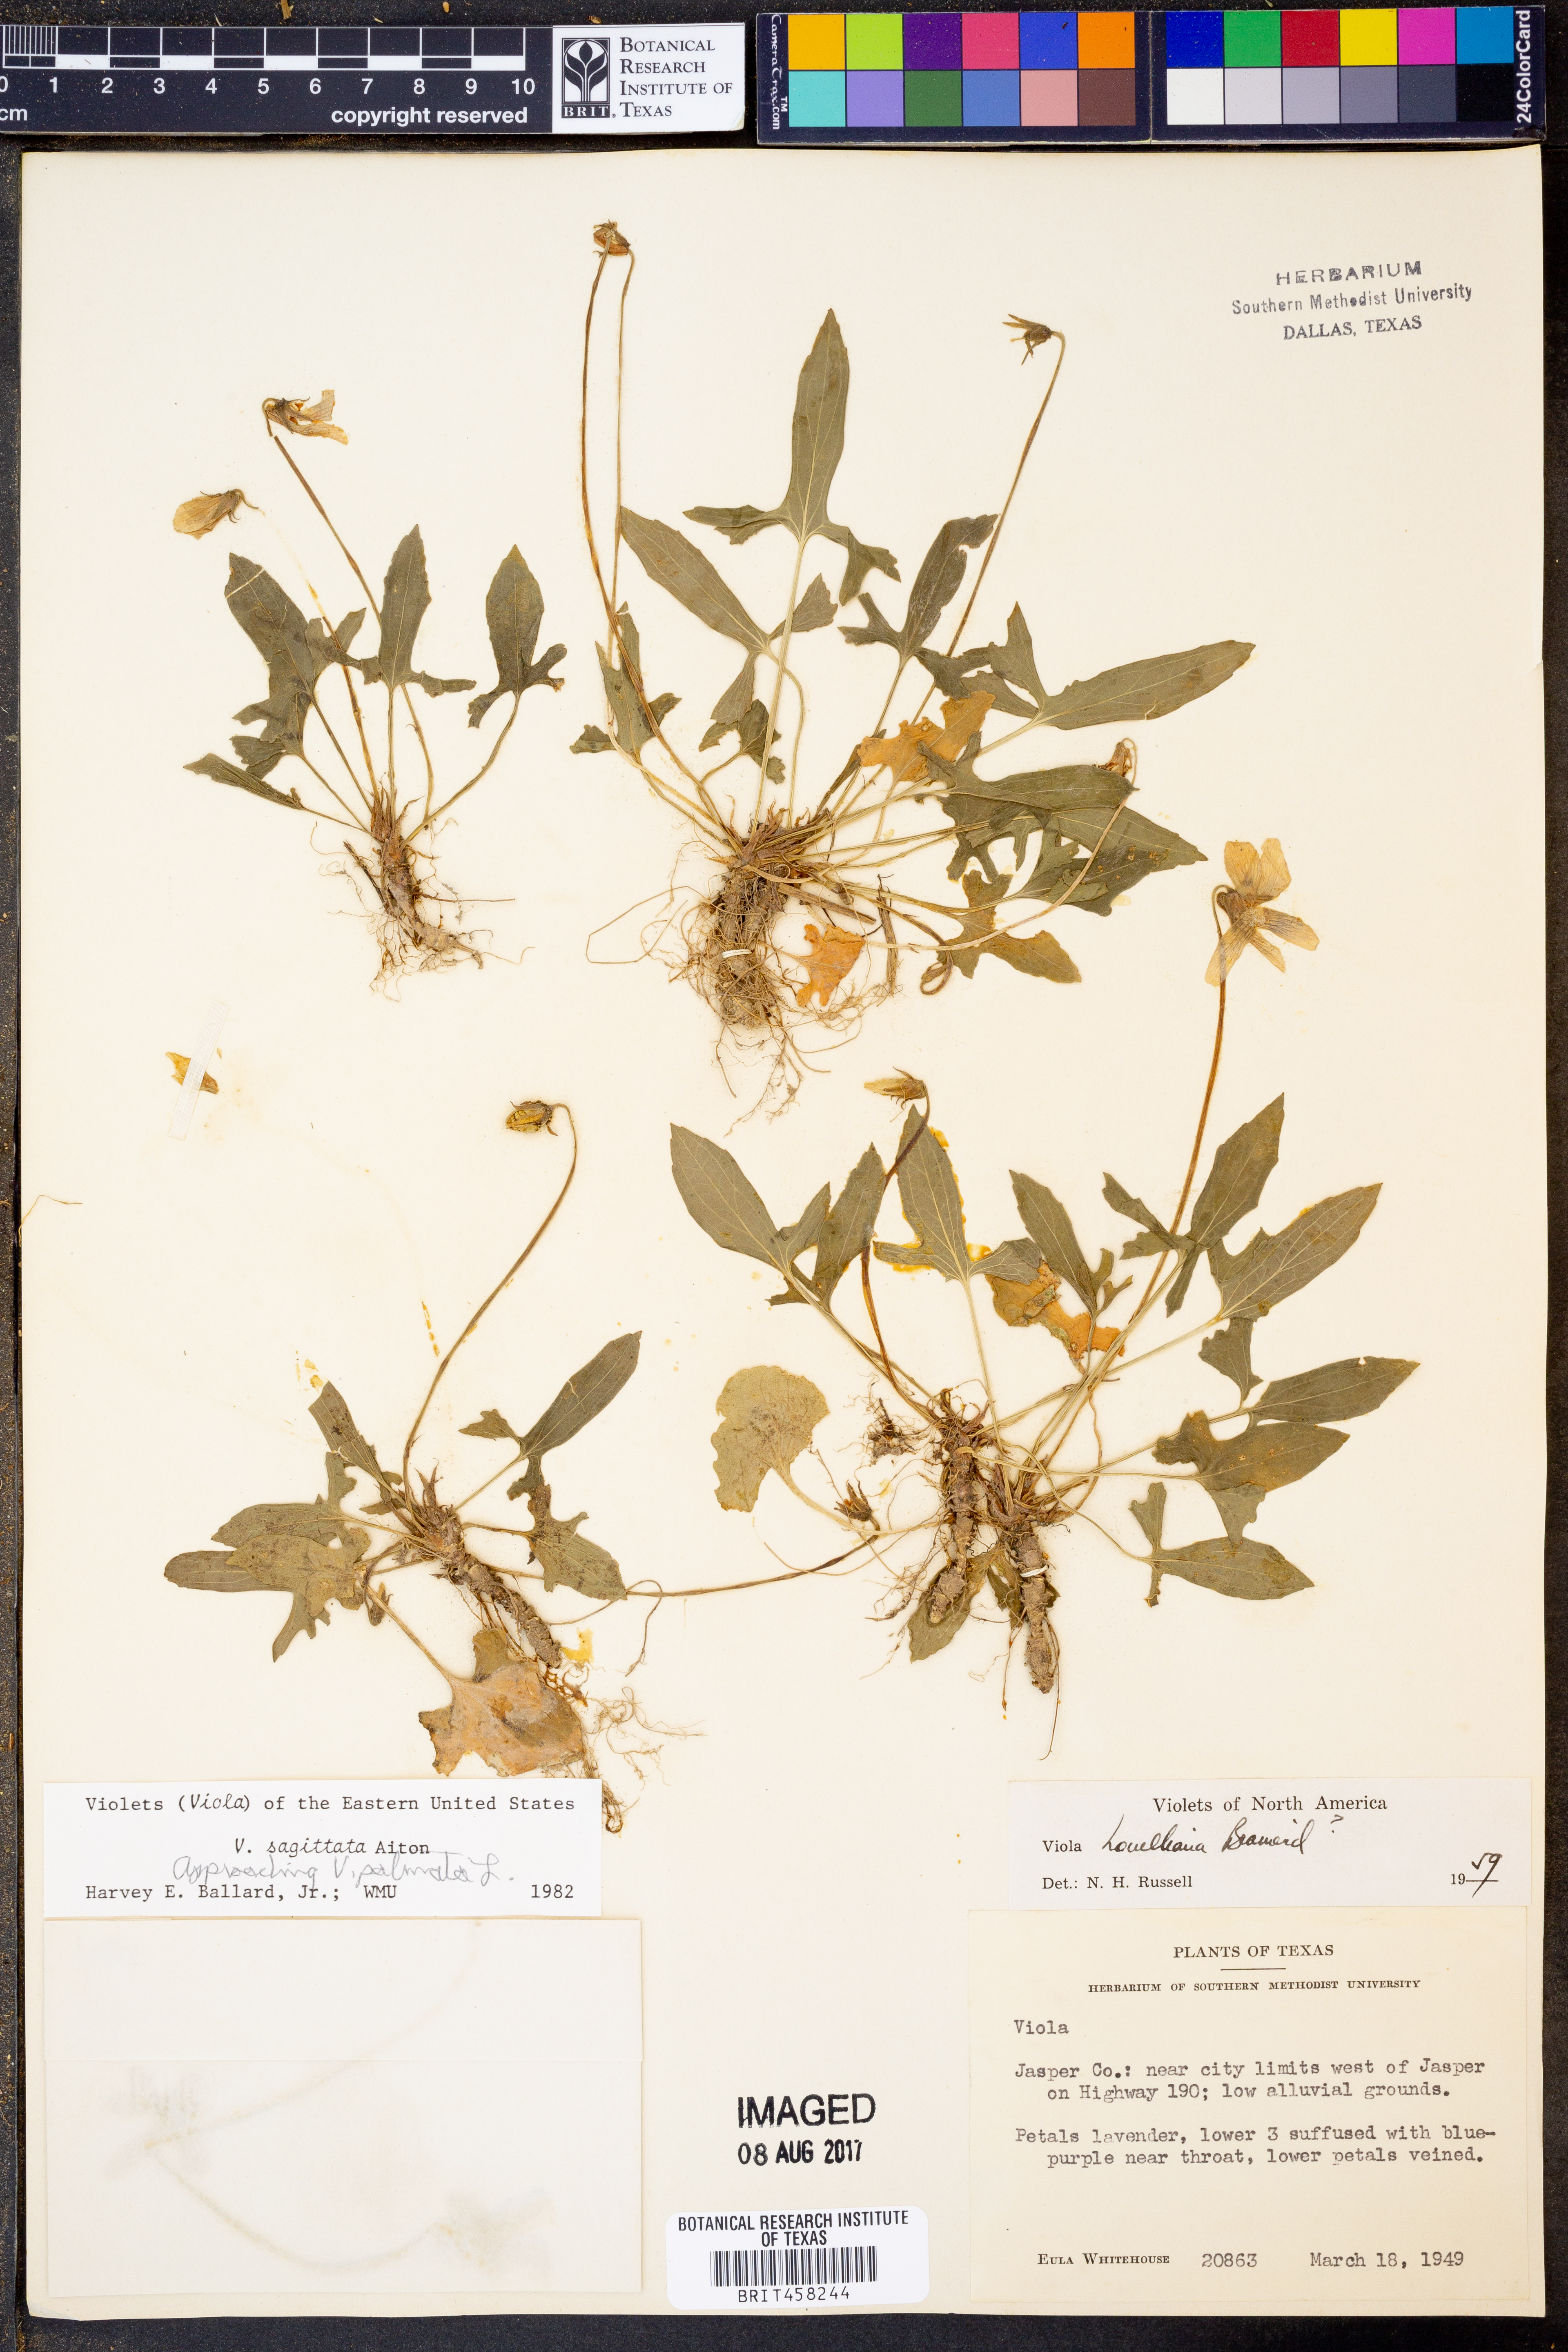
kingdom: Plantae
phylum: Tracheophyta
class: Magnoliopsida
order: Malpighiales
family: Violaceae
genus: Viola
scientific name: Viola sagittata
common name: Arrowhead violet
